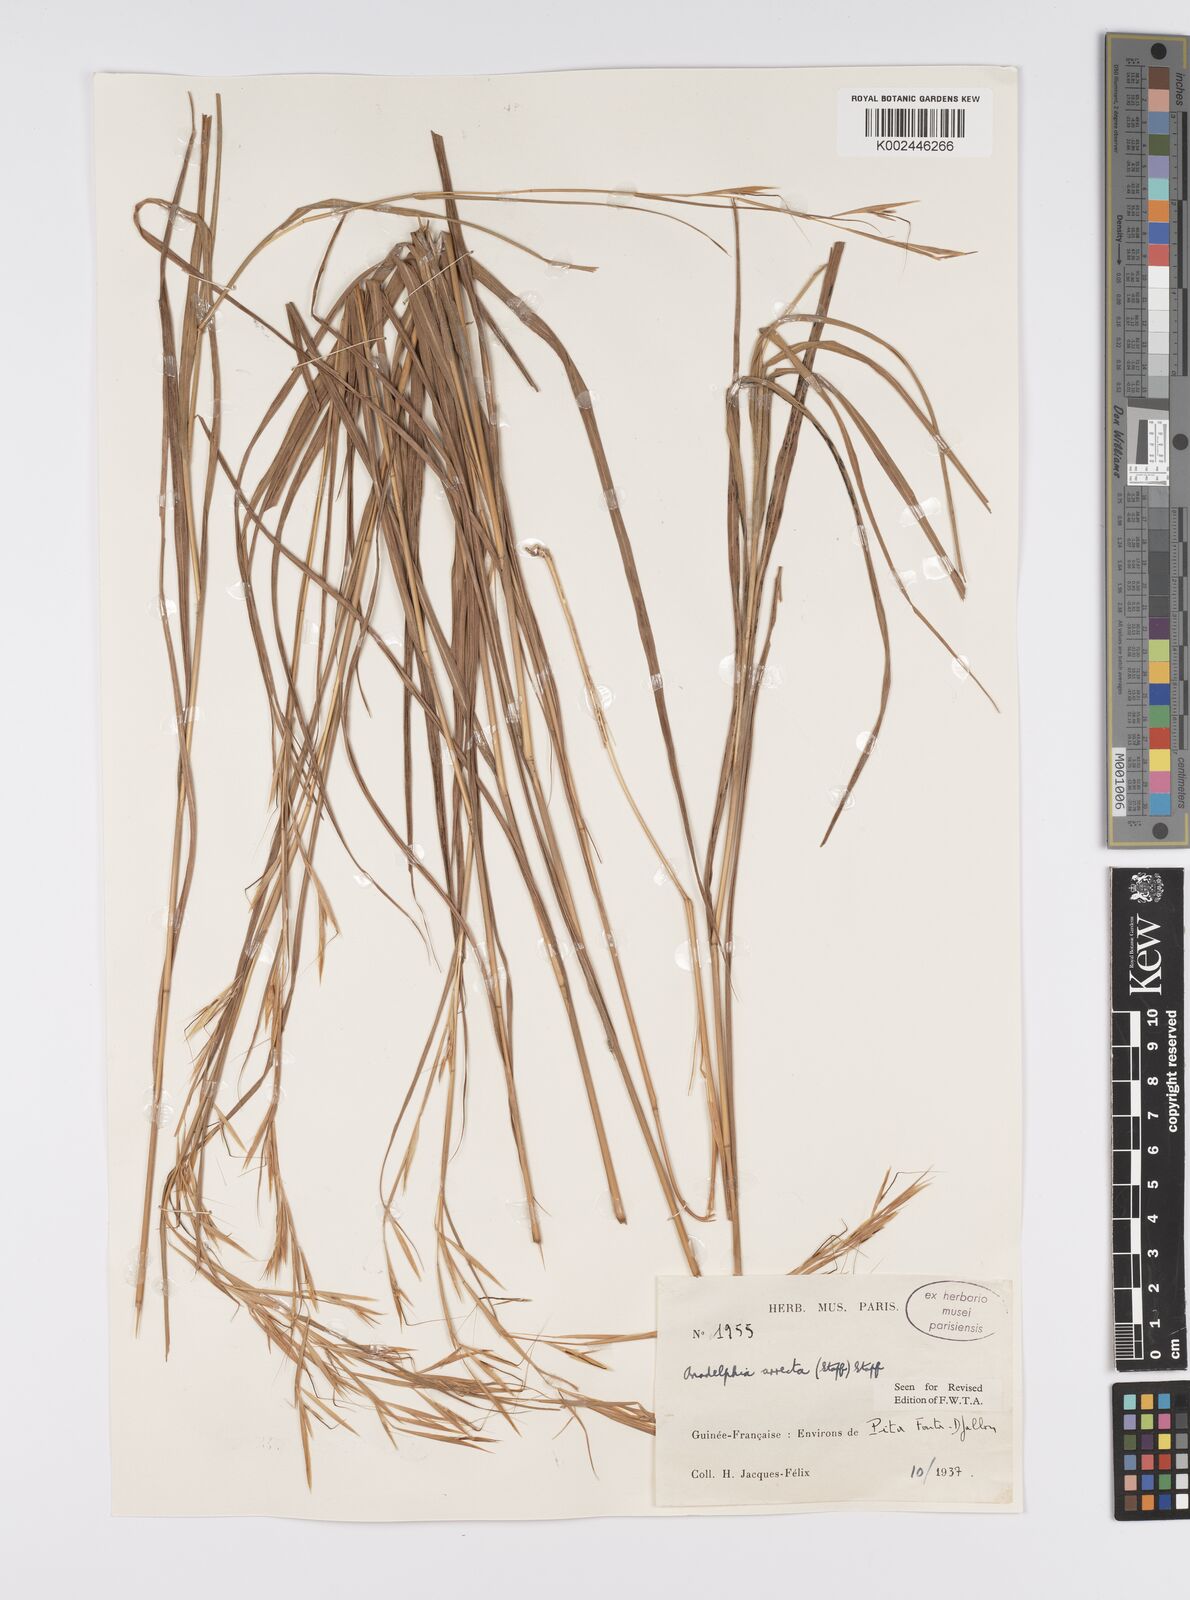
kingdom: Plantae
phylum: Tracheophyta
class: Liliopsida
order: Poales
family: Poaceae
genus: Anadelphia
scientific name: Anadelphia afzeliana
